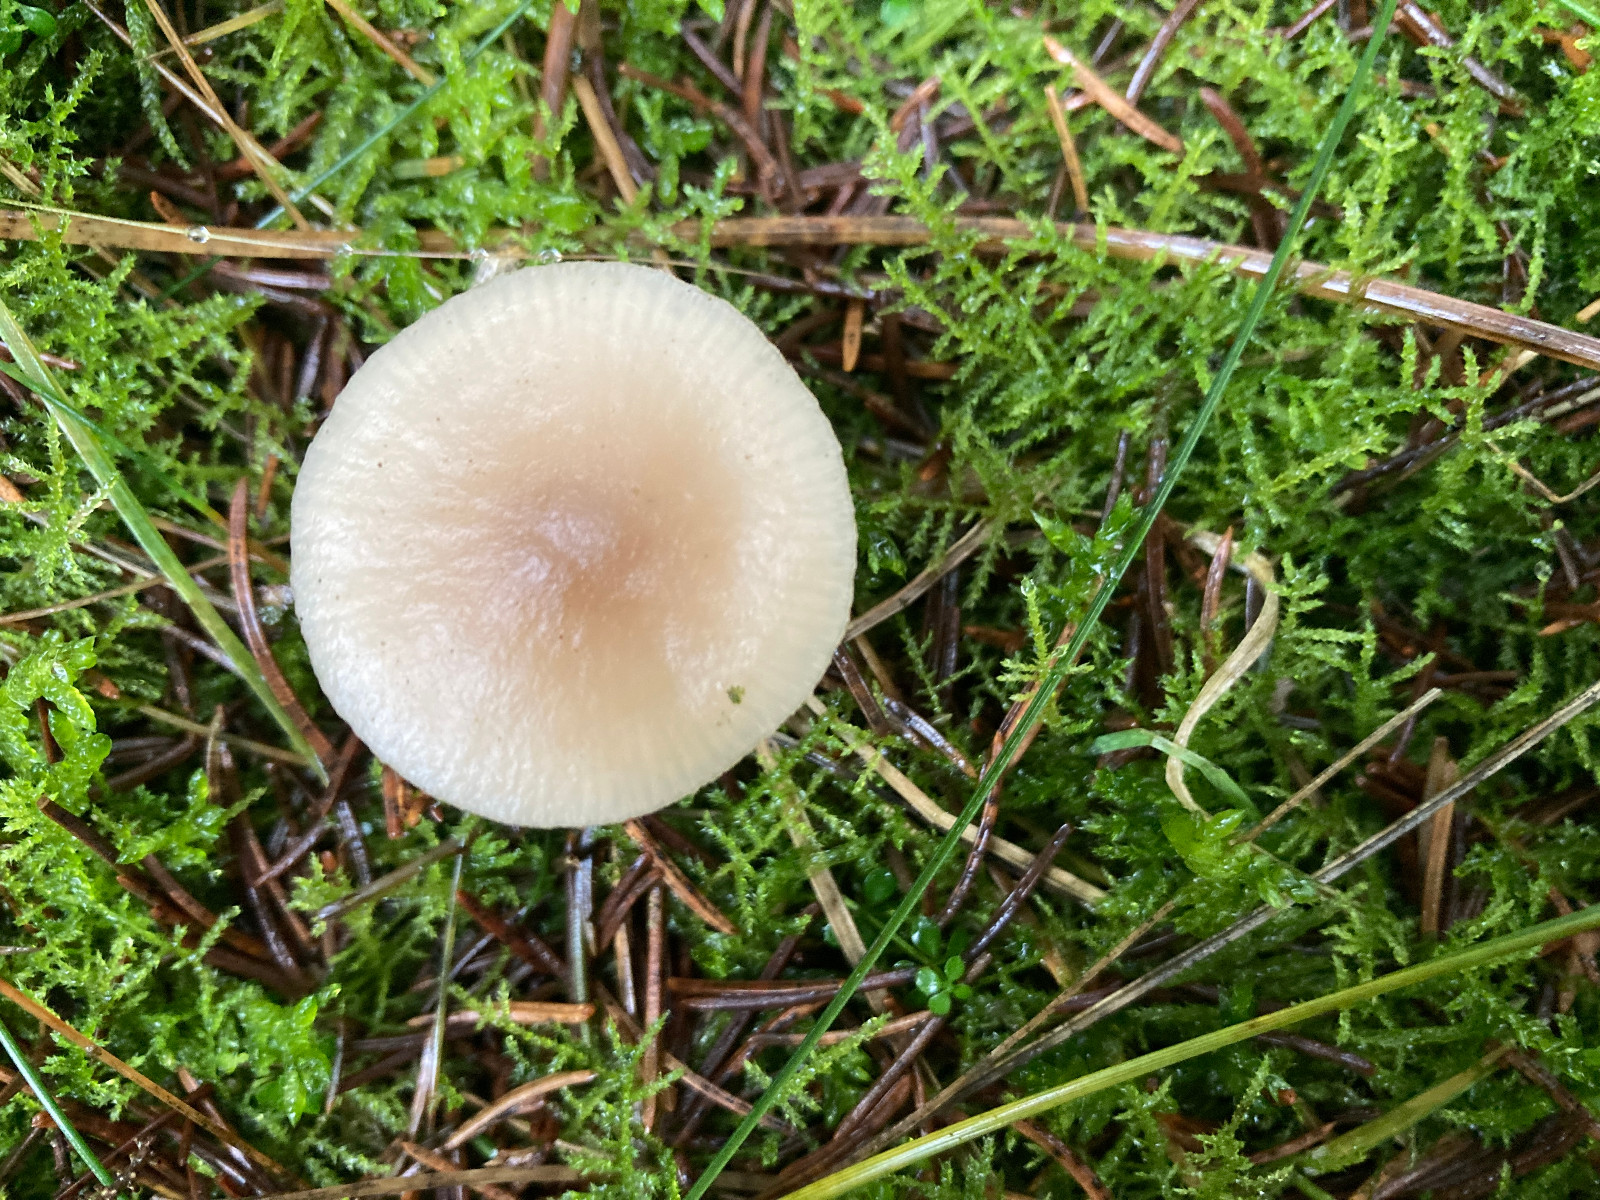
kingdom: Fungi
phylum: Basidiomycota
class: Agaricomycetes
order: Agaricales
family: Tricholomataceae
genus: Clitocybe
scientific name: Clitocybe fragrans
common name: vellugtende tragthat
